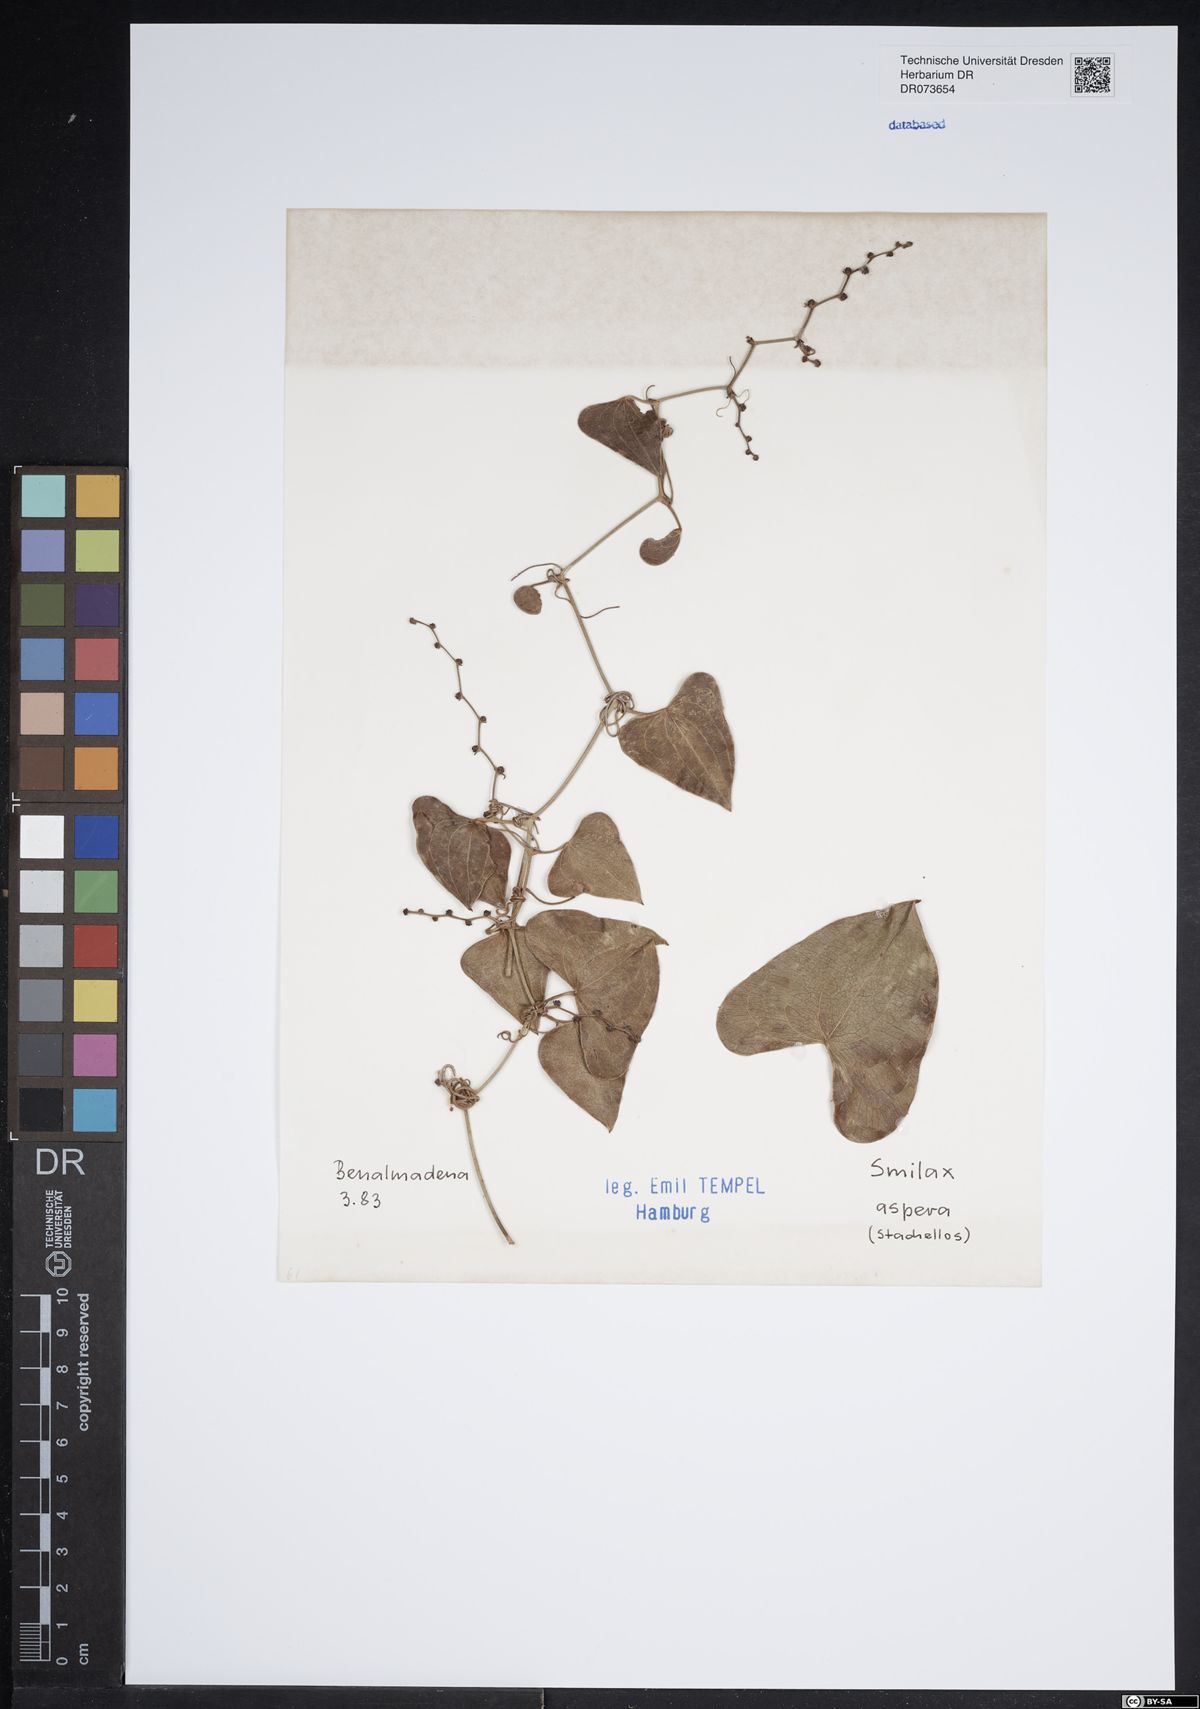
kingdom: Plantae
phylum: Tracheophyta
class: Liliopsida
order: Liliales
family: Smilacaceae
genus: Smilax
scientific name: Smilax aspera
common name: Common smilax
